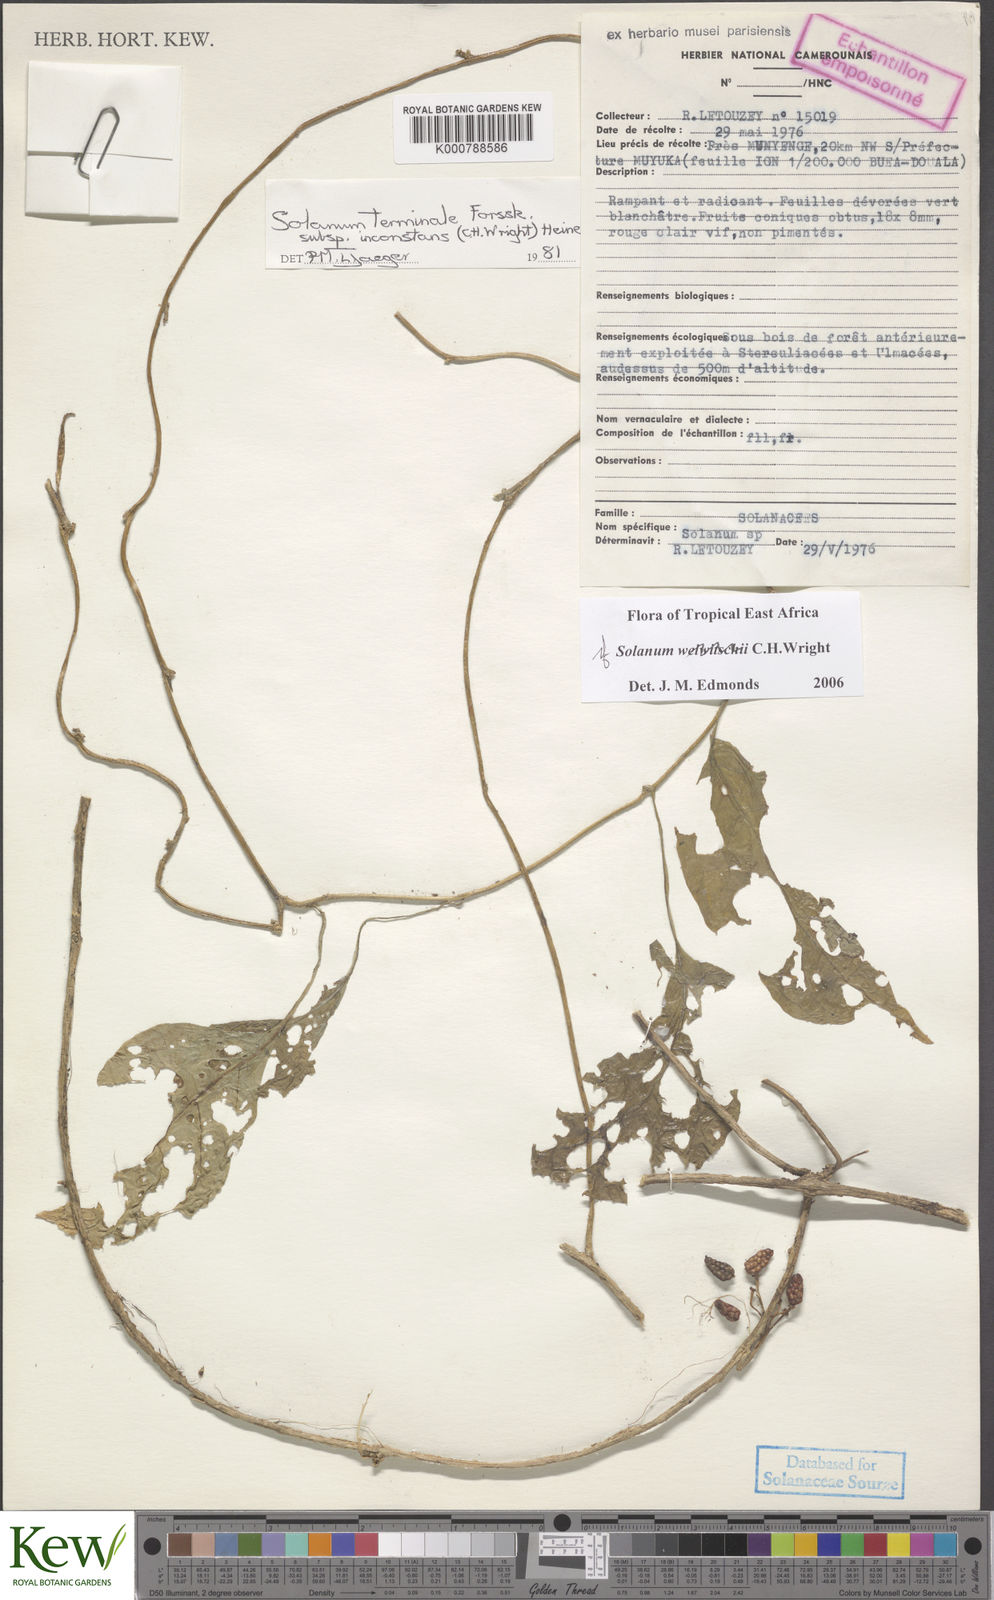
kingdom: Plantae
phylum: Tracheophyta
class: Magnoliopsida
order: Solanales
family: Solanaceae
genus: Solanum
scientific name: Solanum terminale
